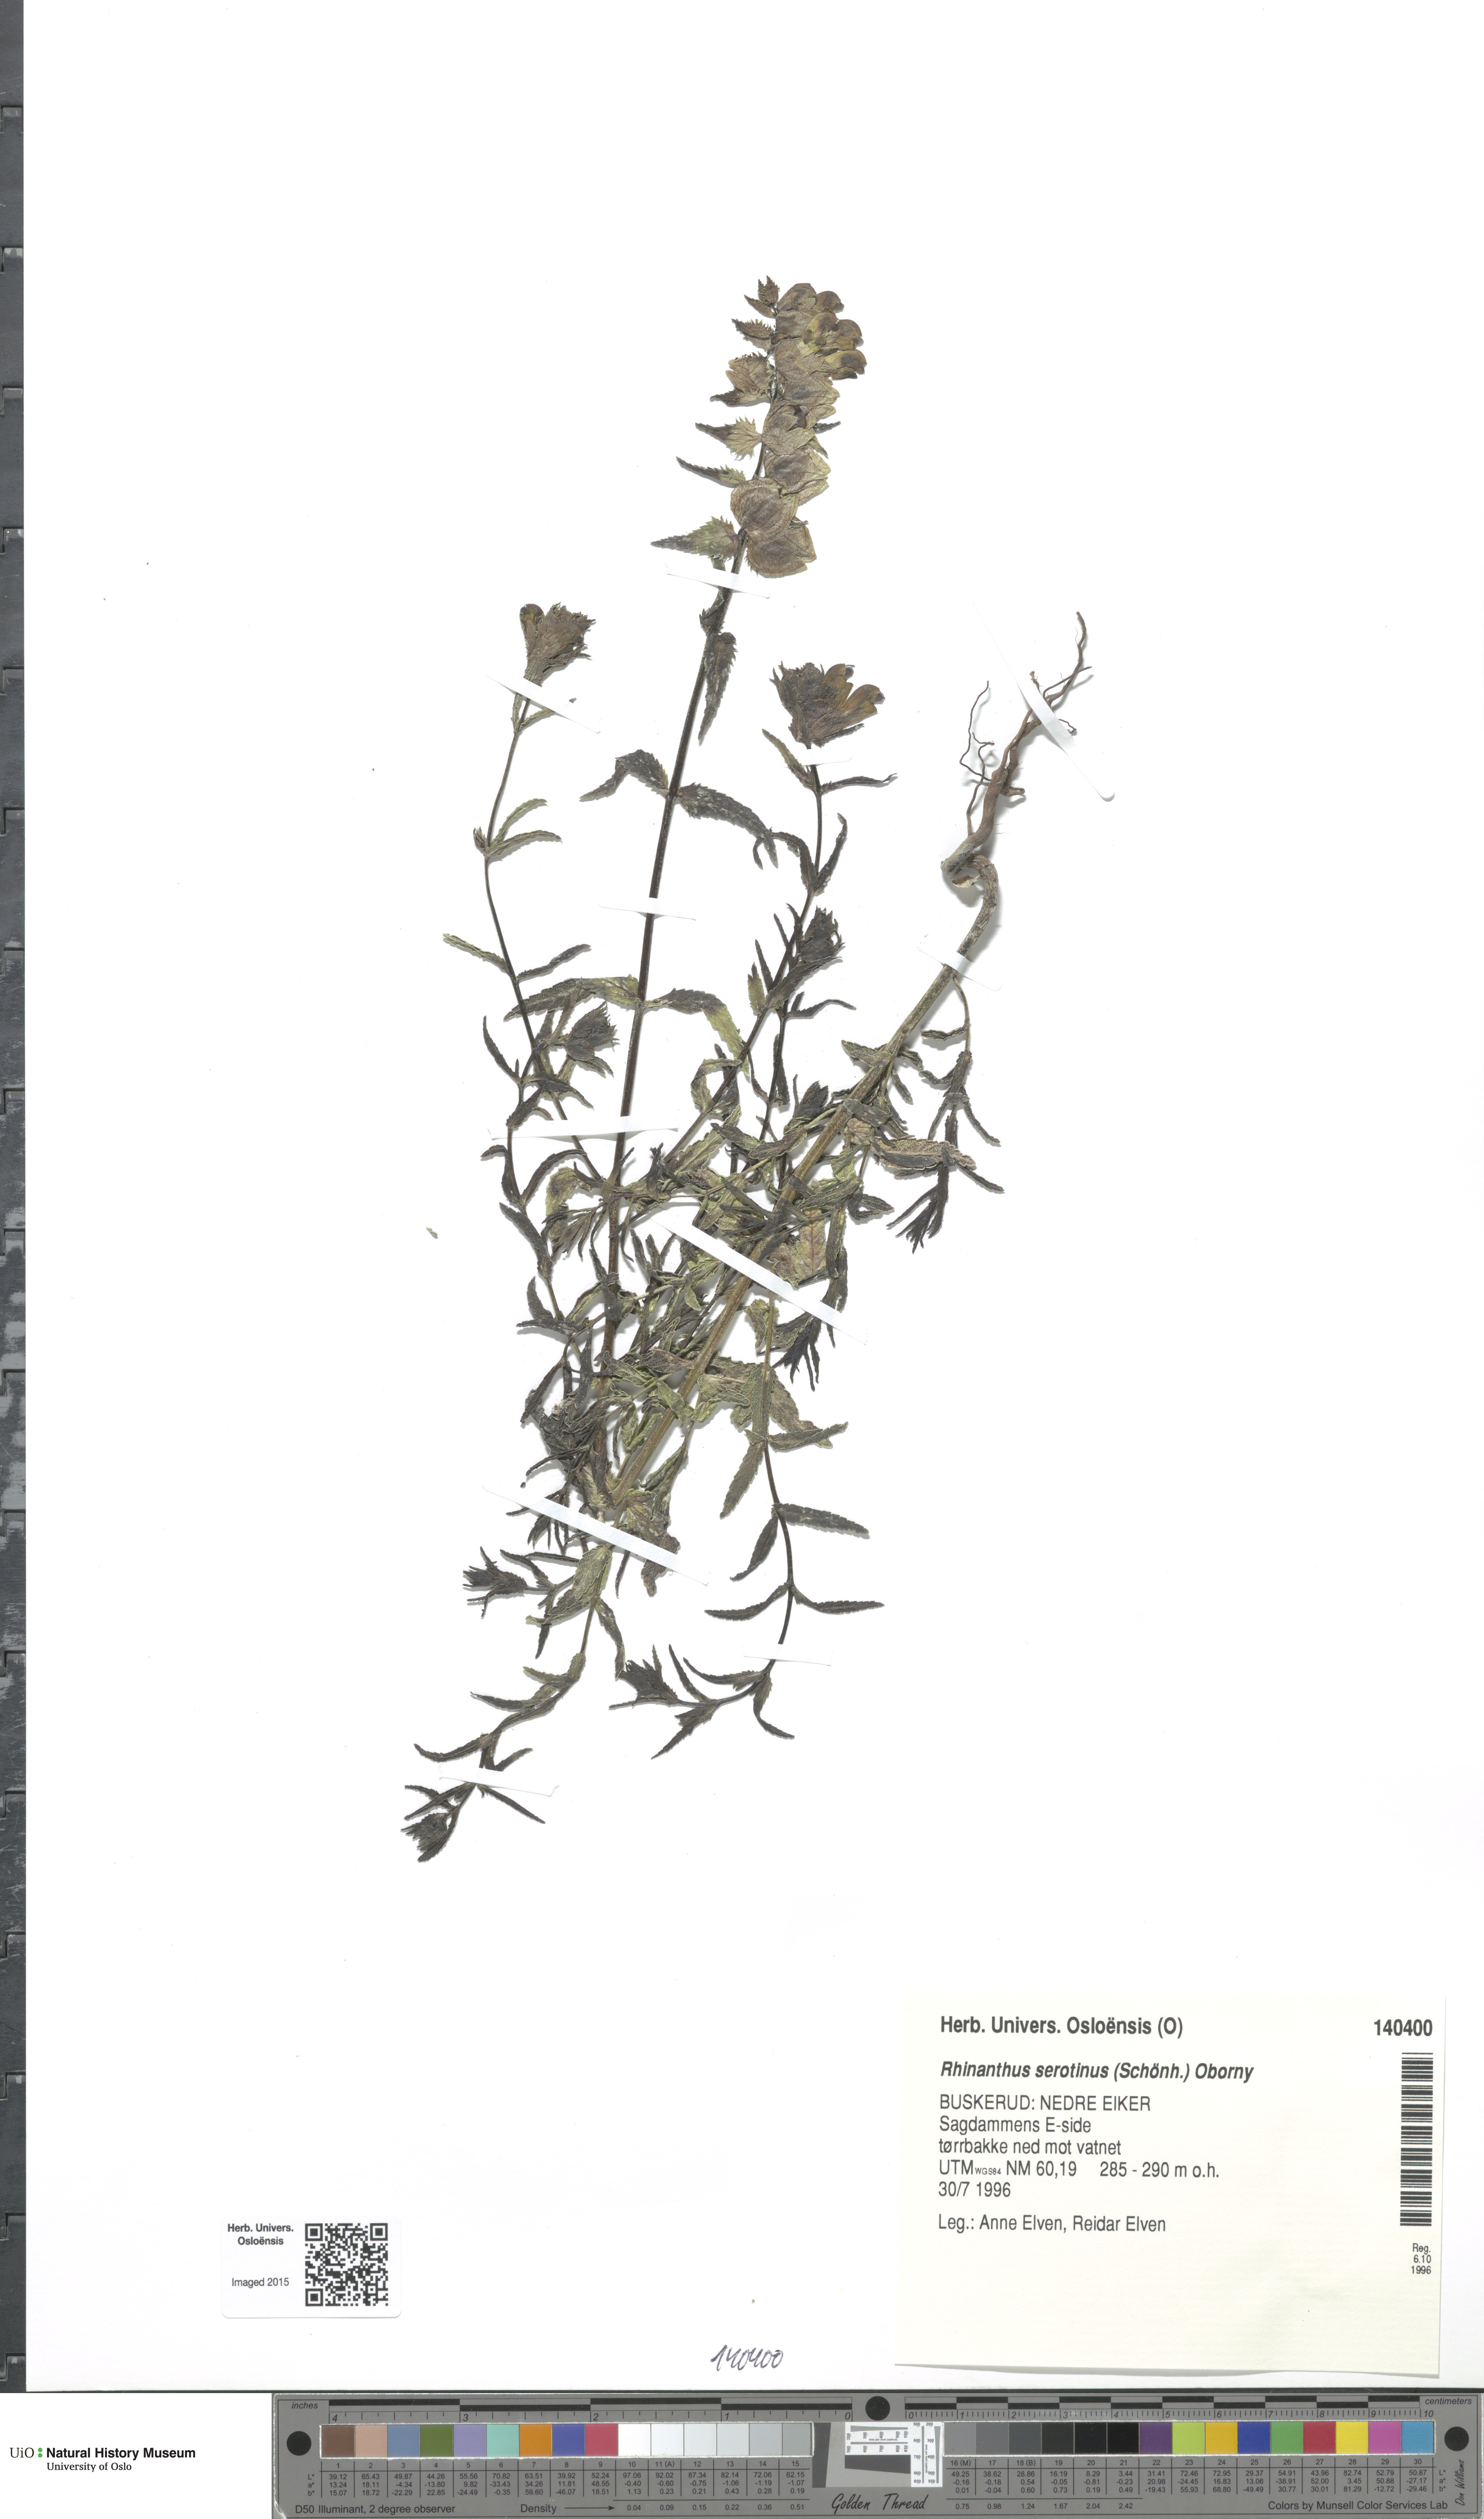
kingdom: Plantae
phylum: Tracheophyta
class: Magnoliopsida
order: Lamiales
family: Orobanchaceae
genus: Rhinanthus
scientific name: Rhinanthus
